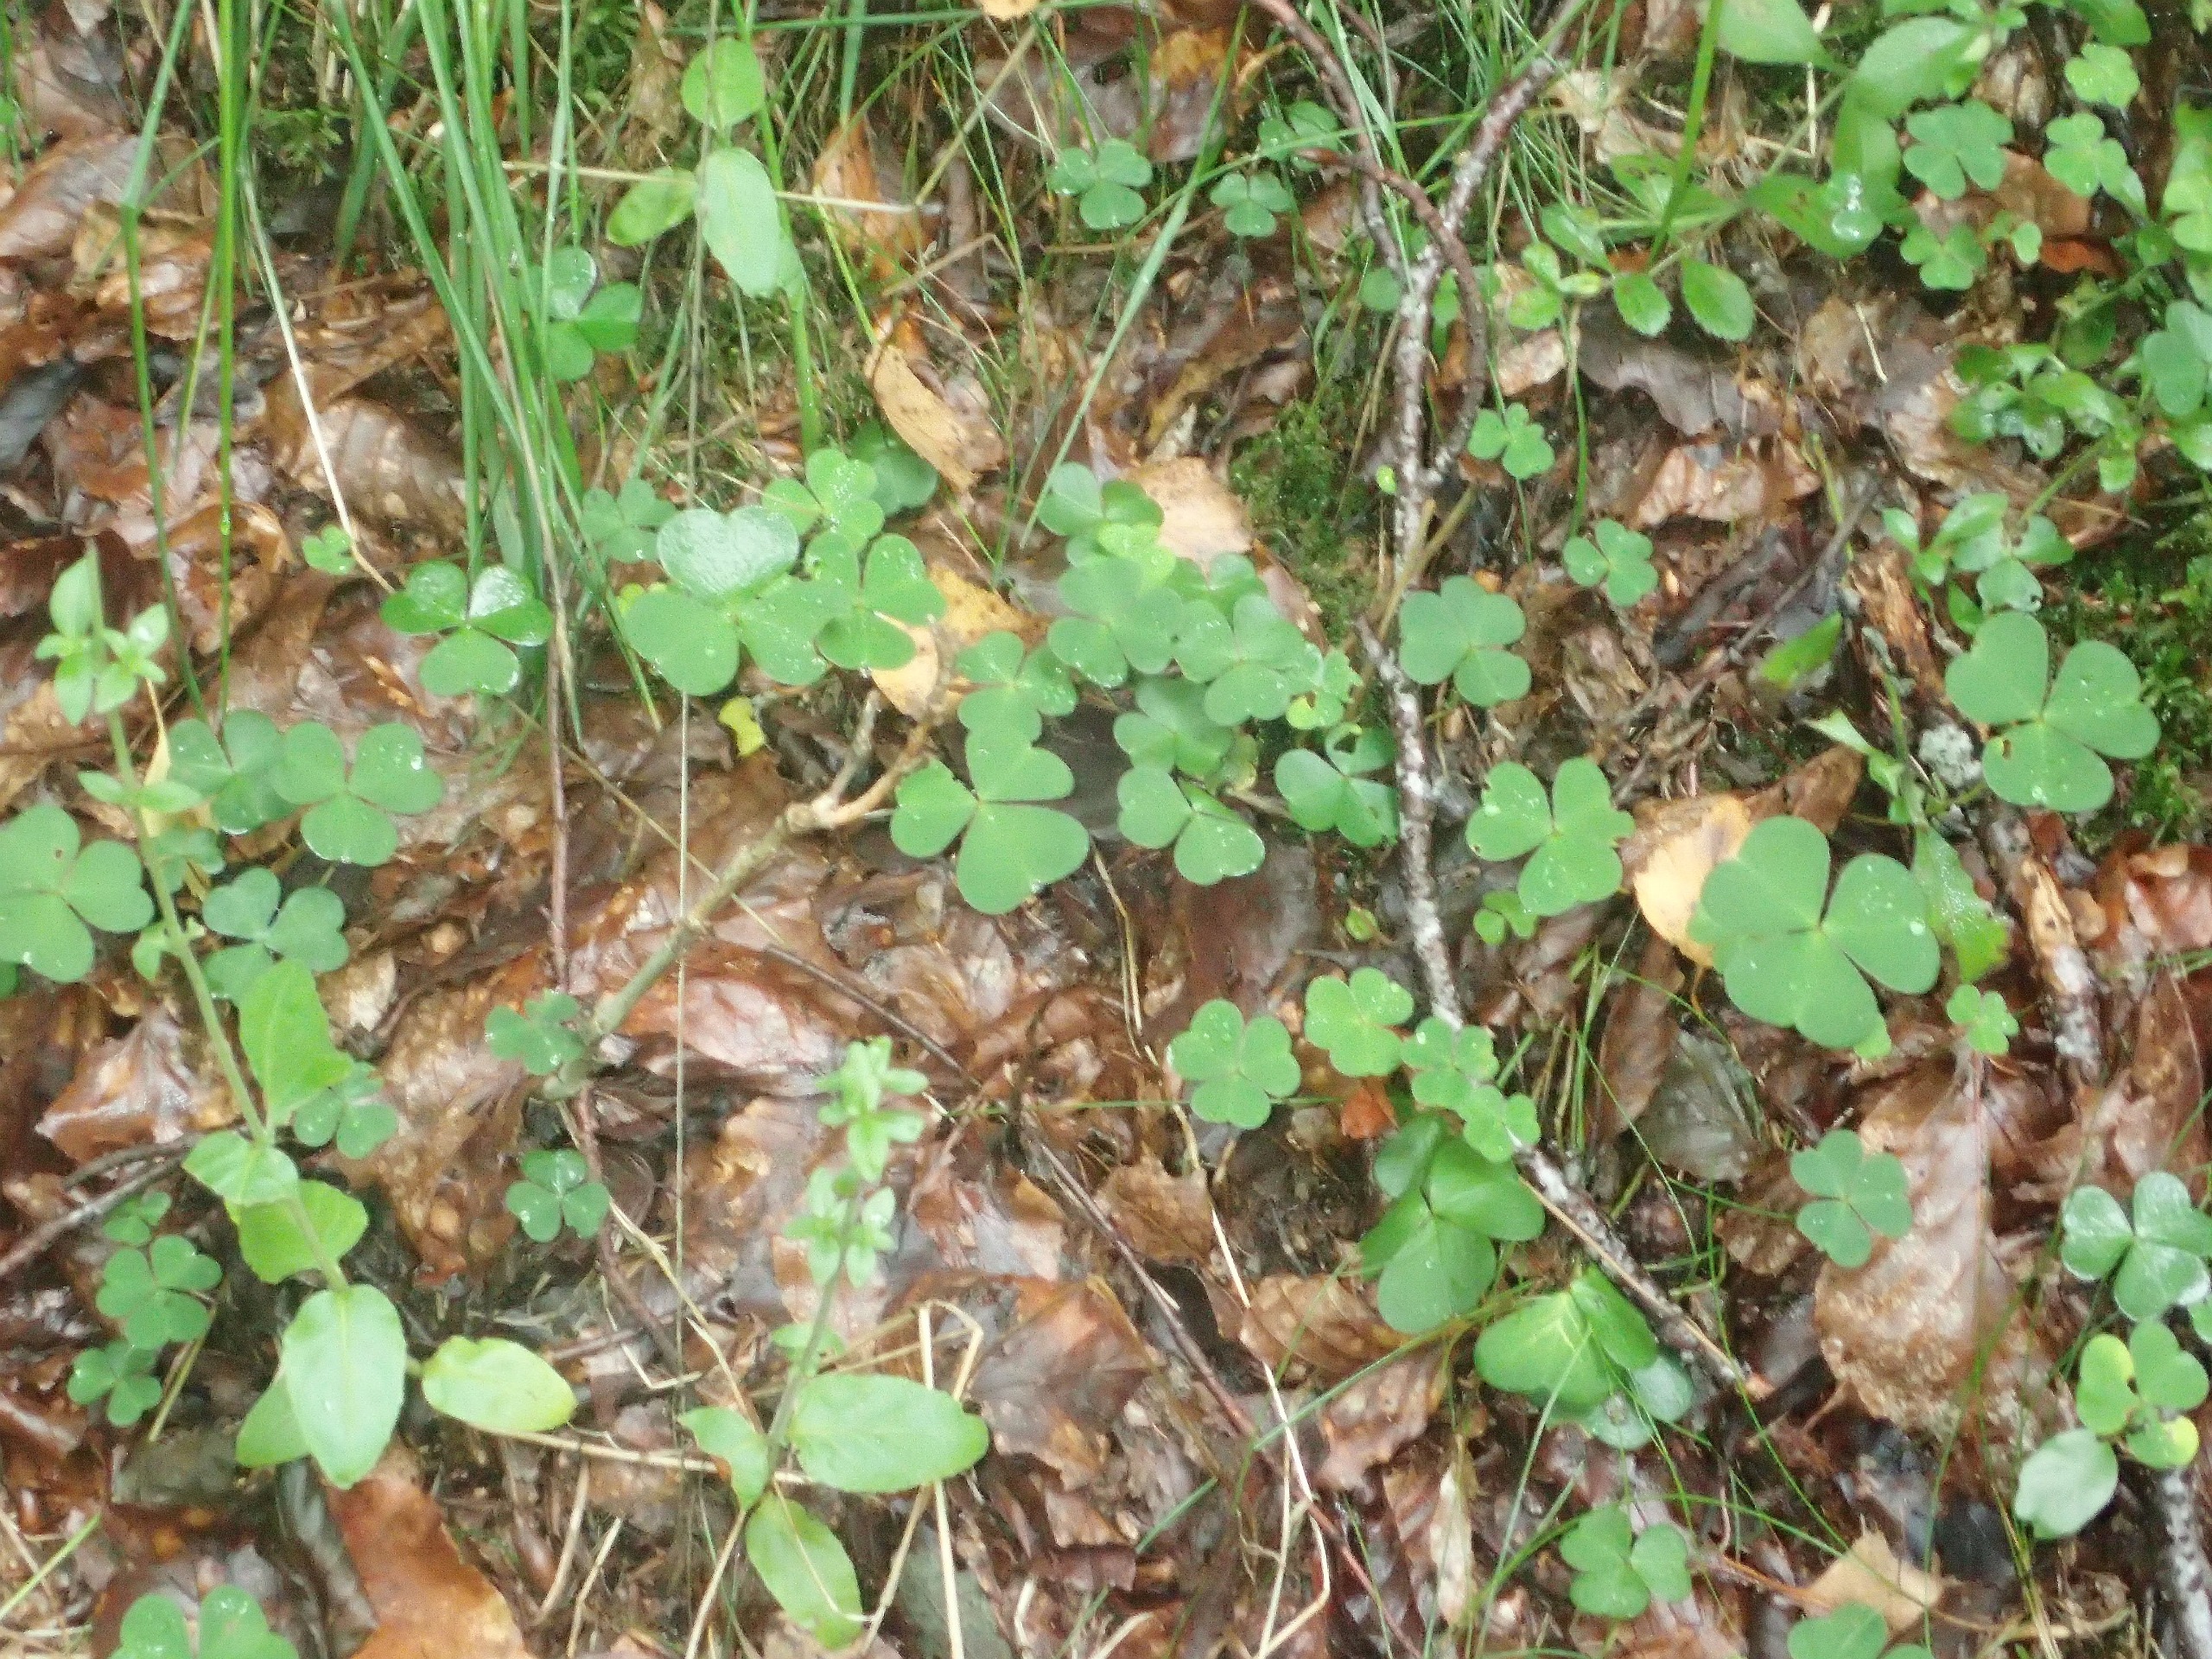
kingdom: Plantae
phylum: Tracheophyta
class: Magnoliopsida
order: Oxalidales
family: Oxalidaceae
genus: Oxalis
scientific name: Oxalis acetosella
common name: Skovsyre
